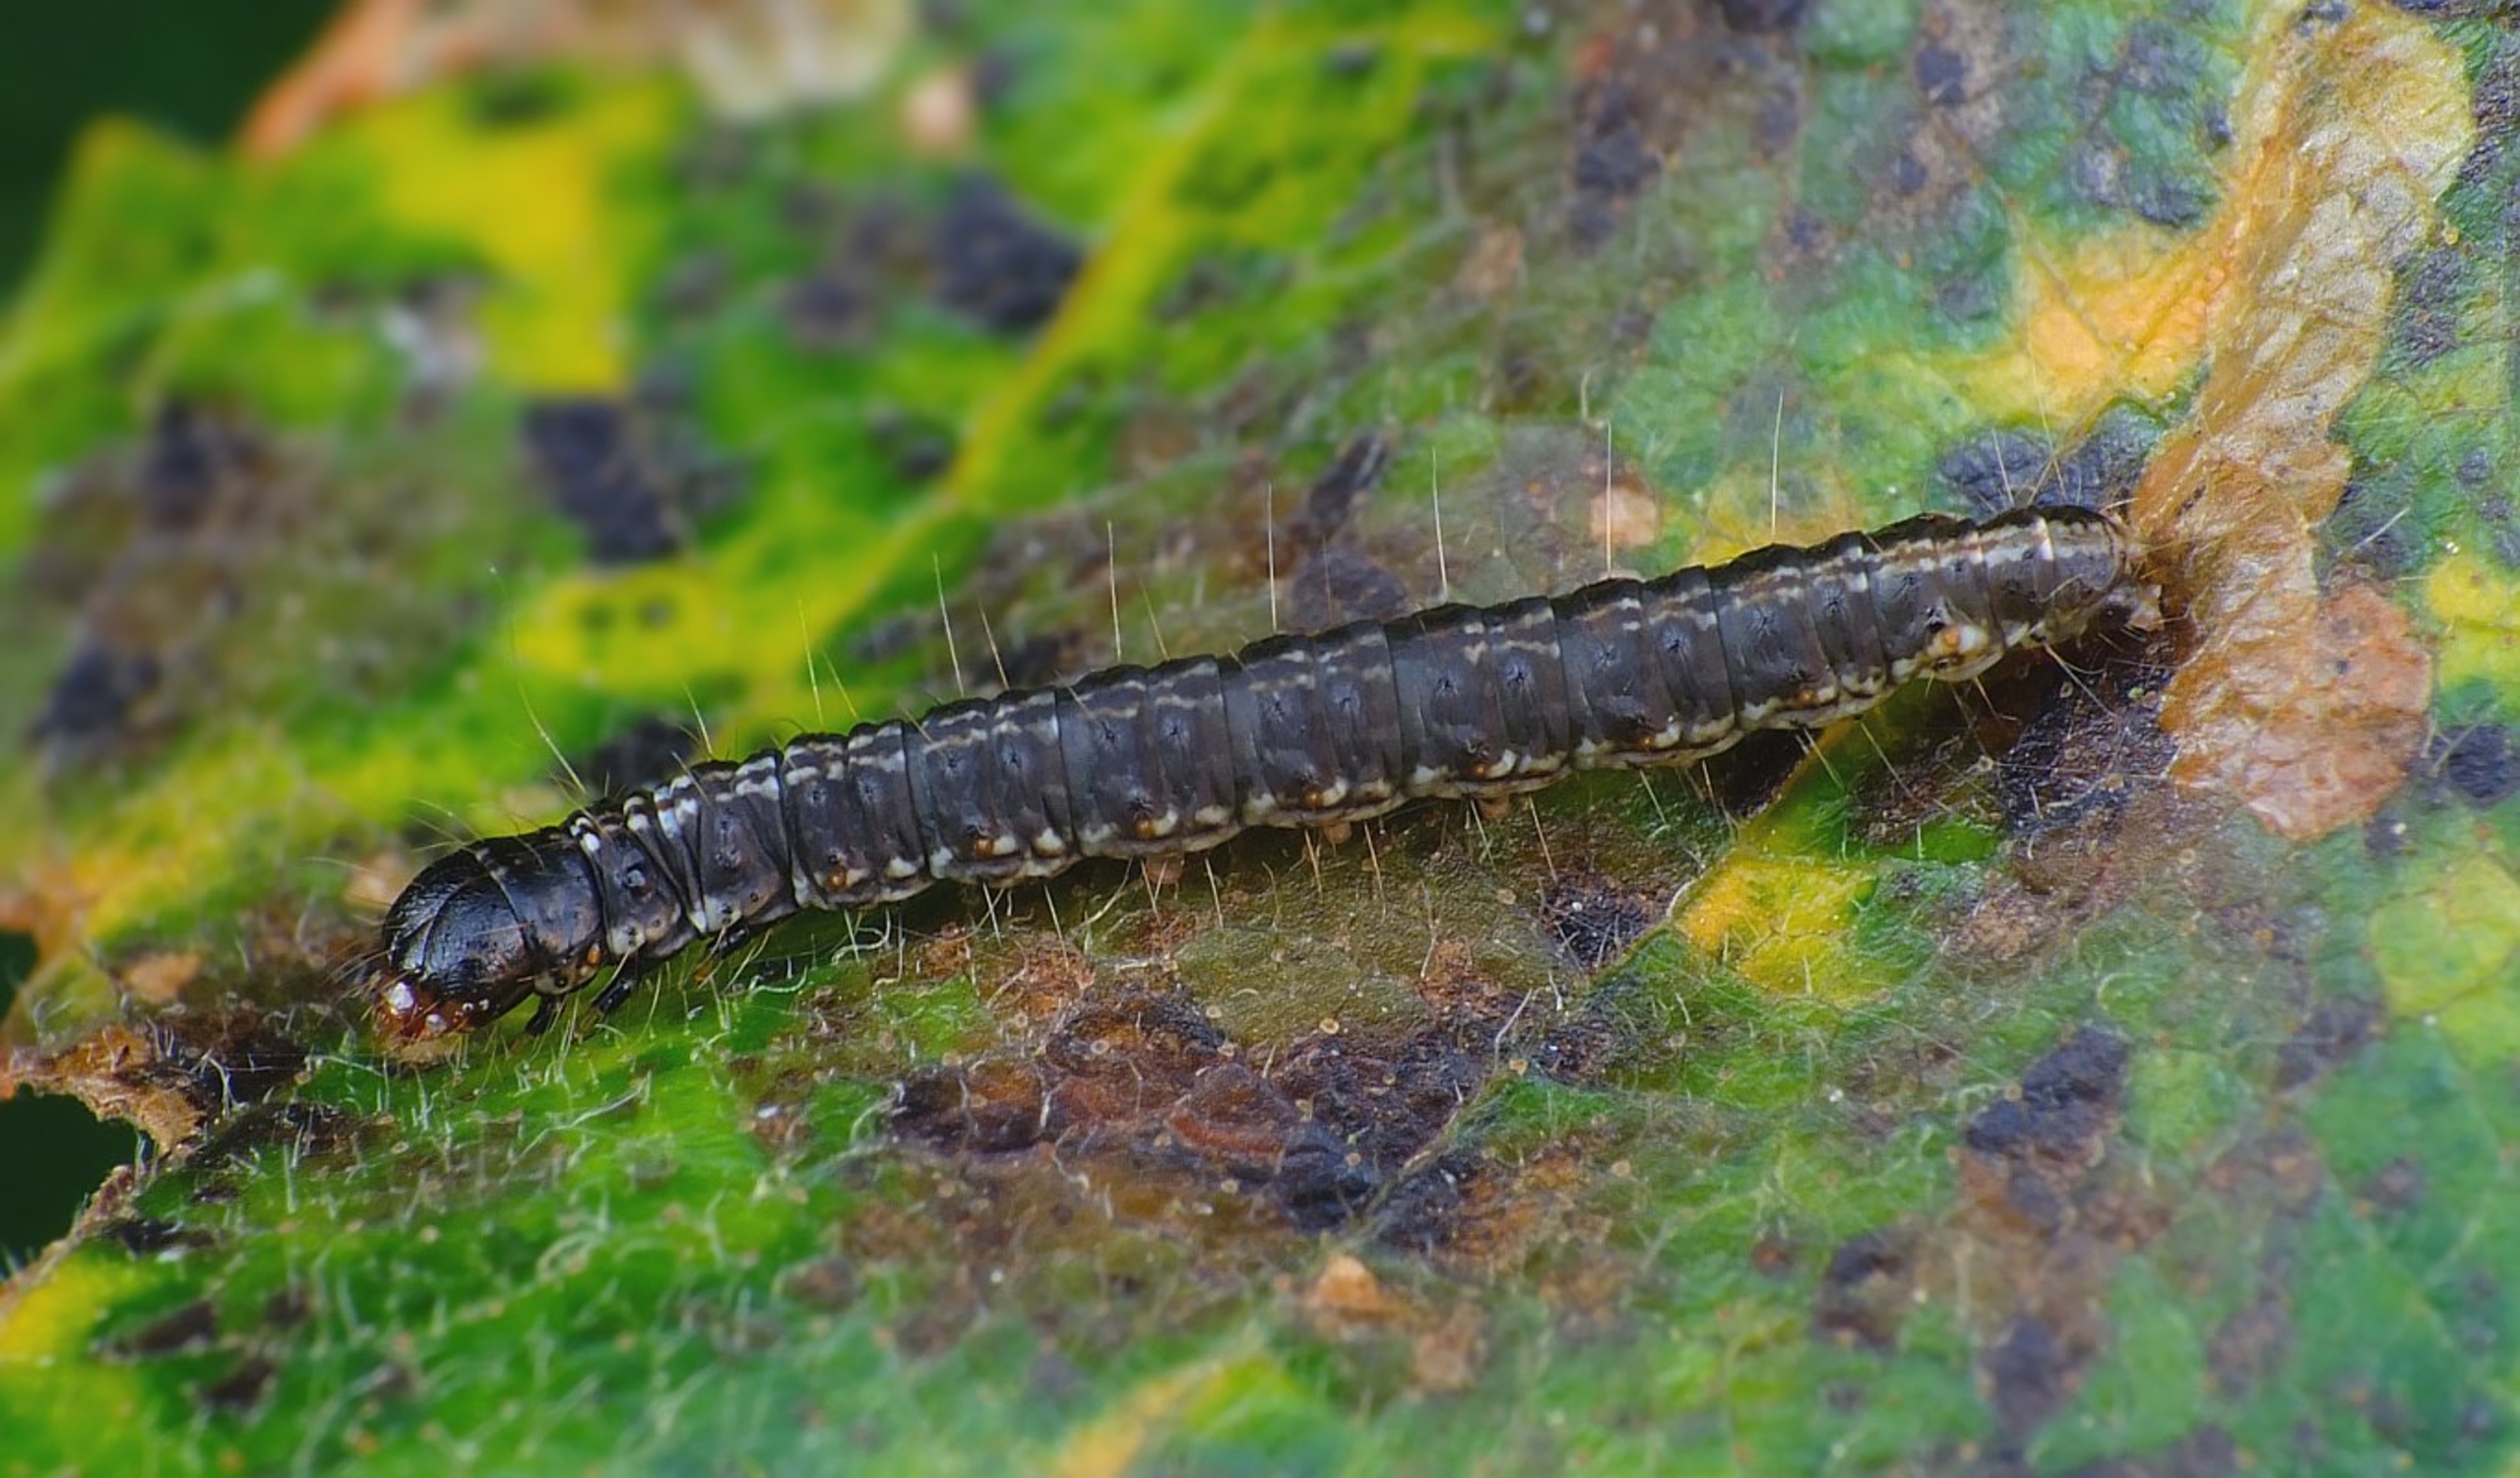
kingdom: Animalia
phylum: Arthropoda
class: Insecta
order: Lepidoptera
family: Pyralidae
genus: Cryptoblabes
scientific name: Cryptoblabes bistriga
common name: Ellehalvmøl
